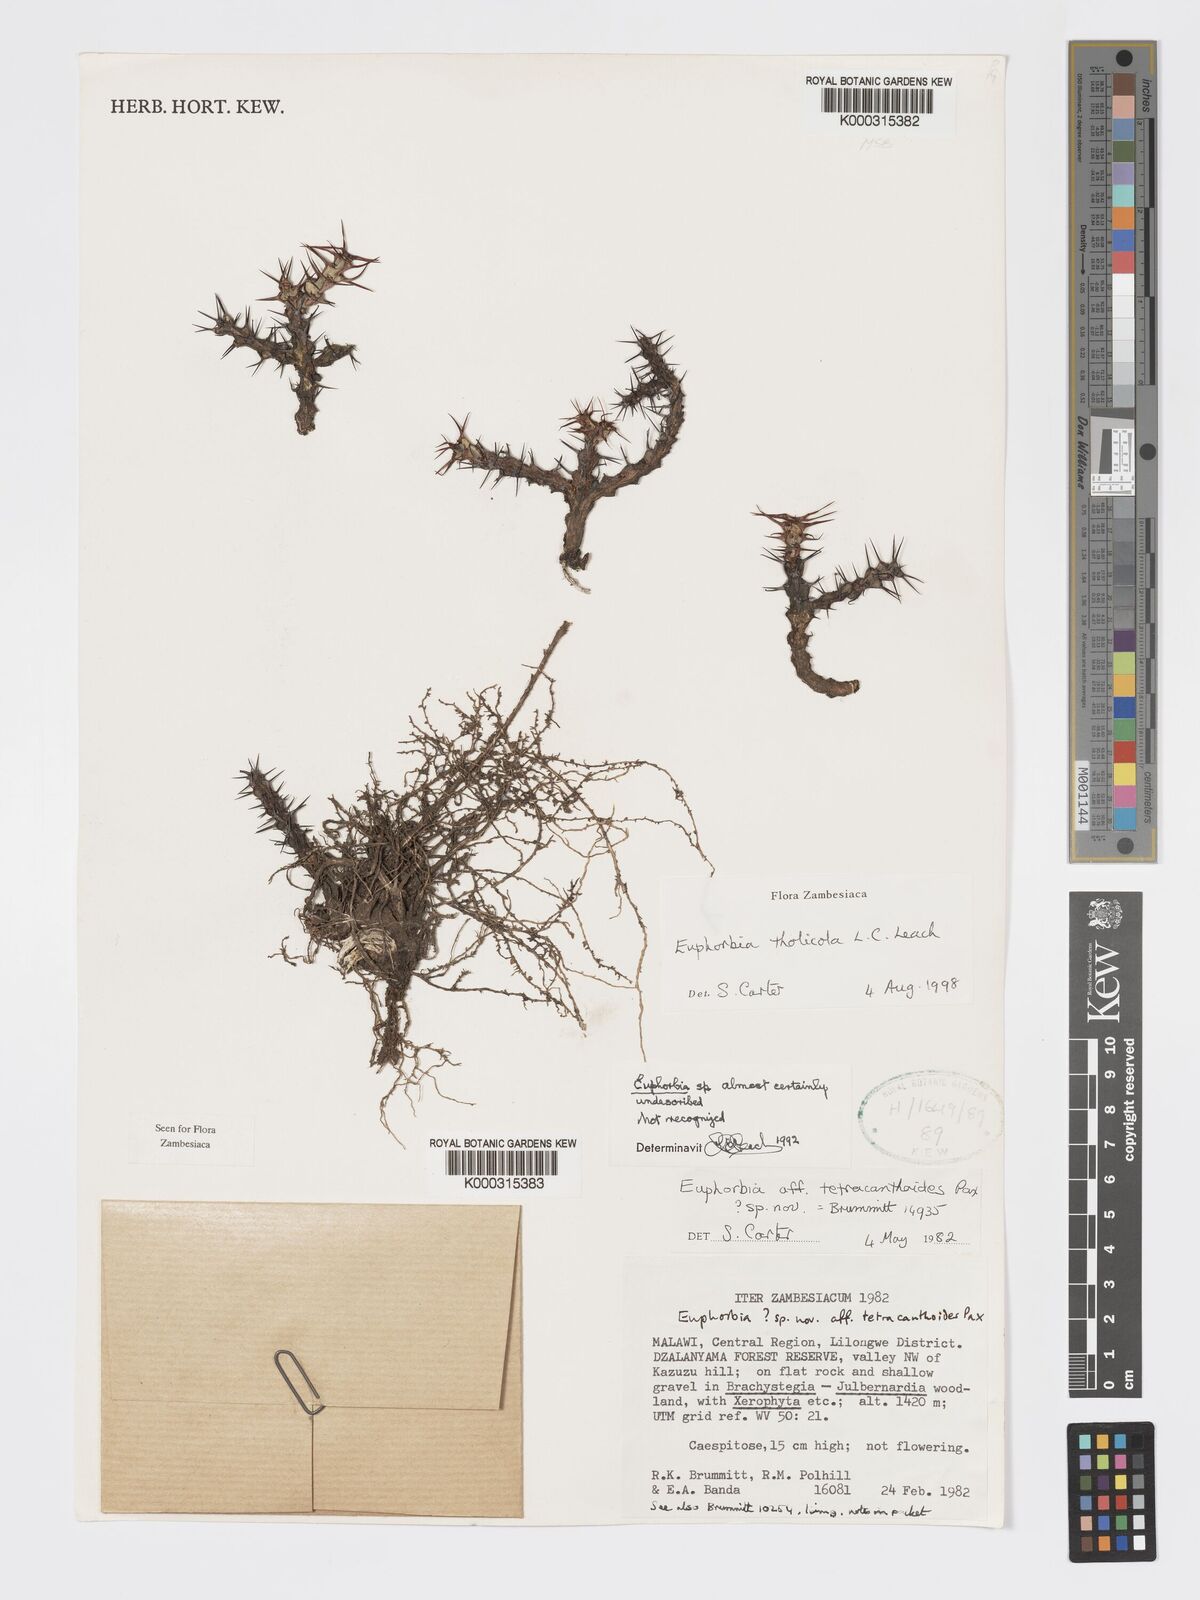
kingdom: Plantae
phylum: Tracheophyta
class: Magnoliopsida
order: Malpighiales
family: Euphorbiaceae
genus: Euphorbia
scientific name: Euphorbia tholicola
